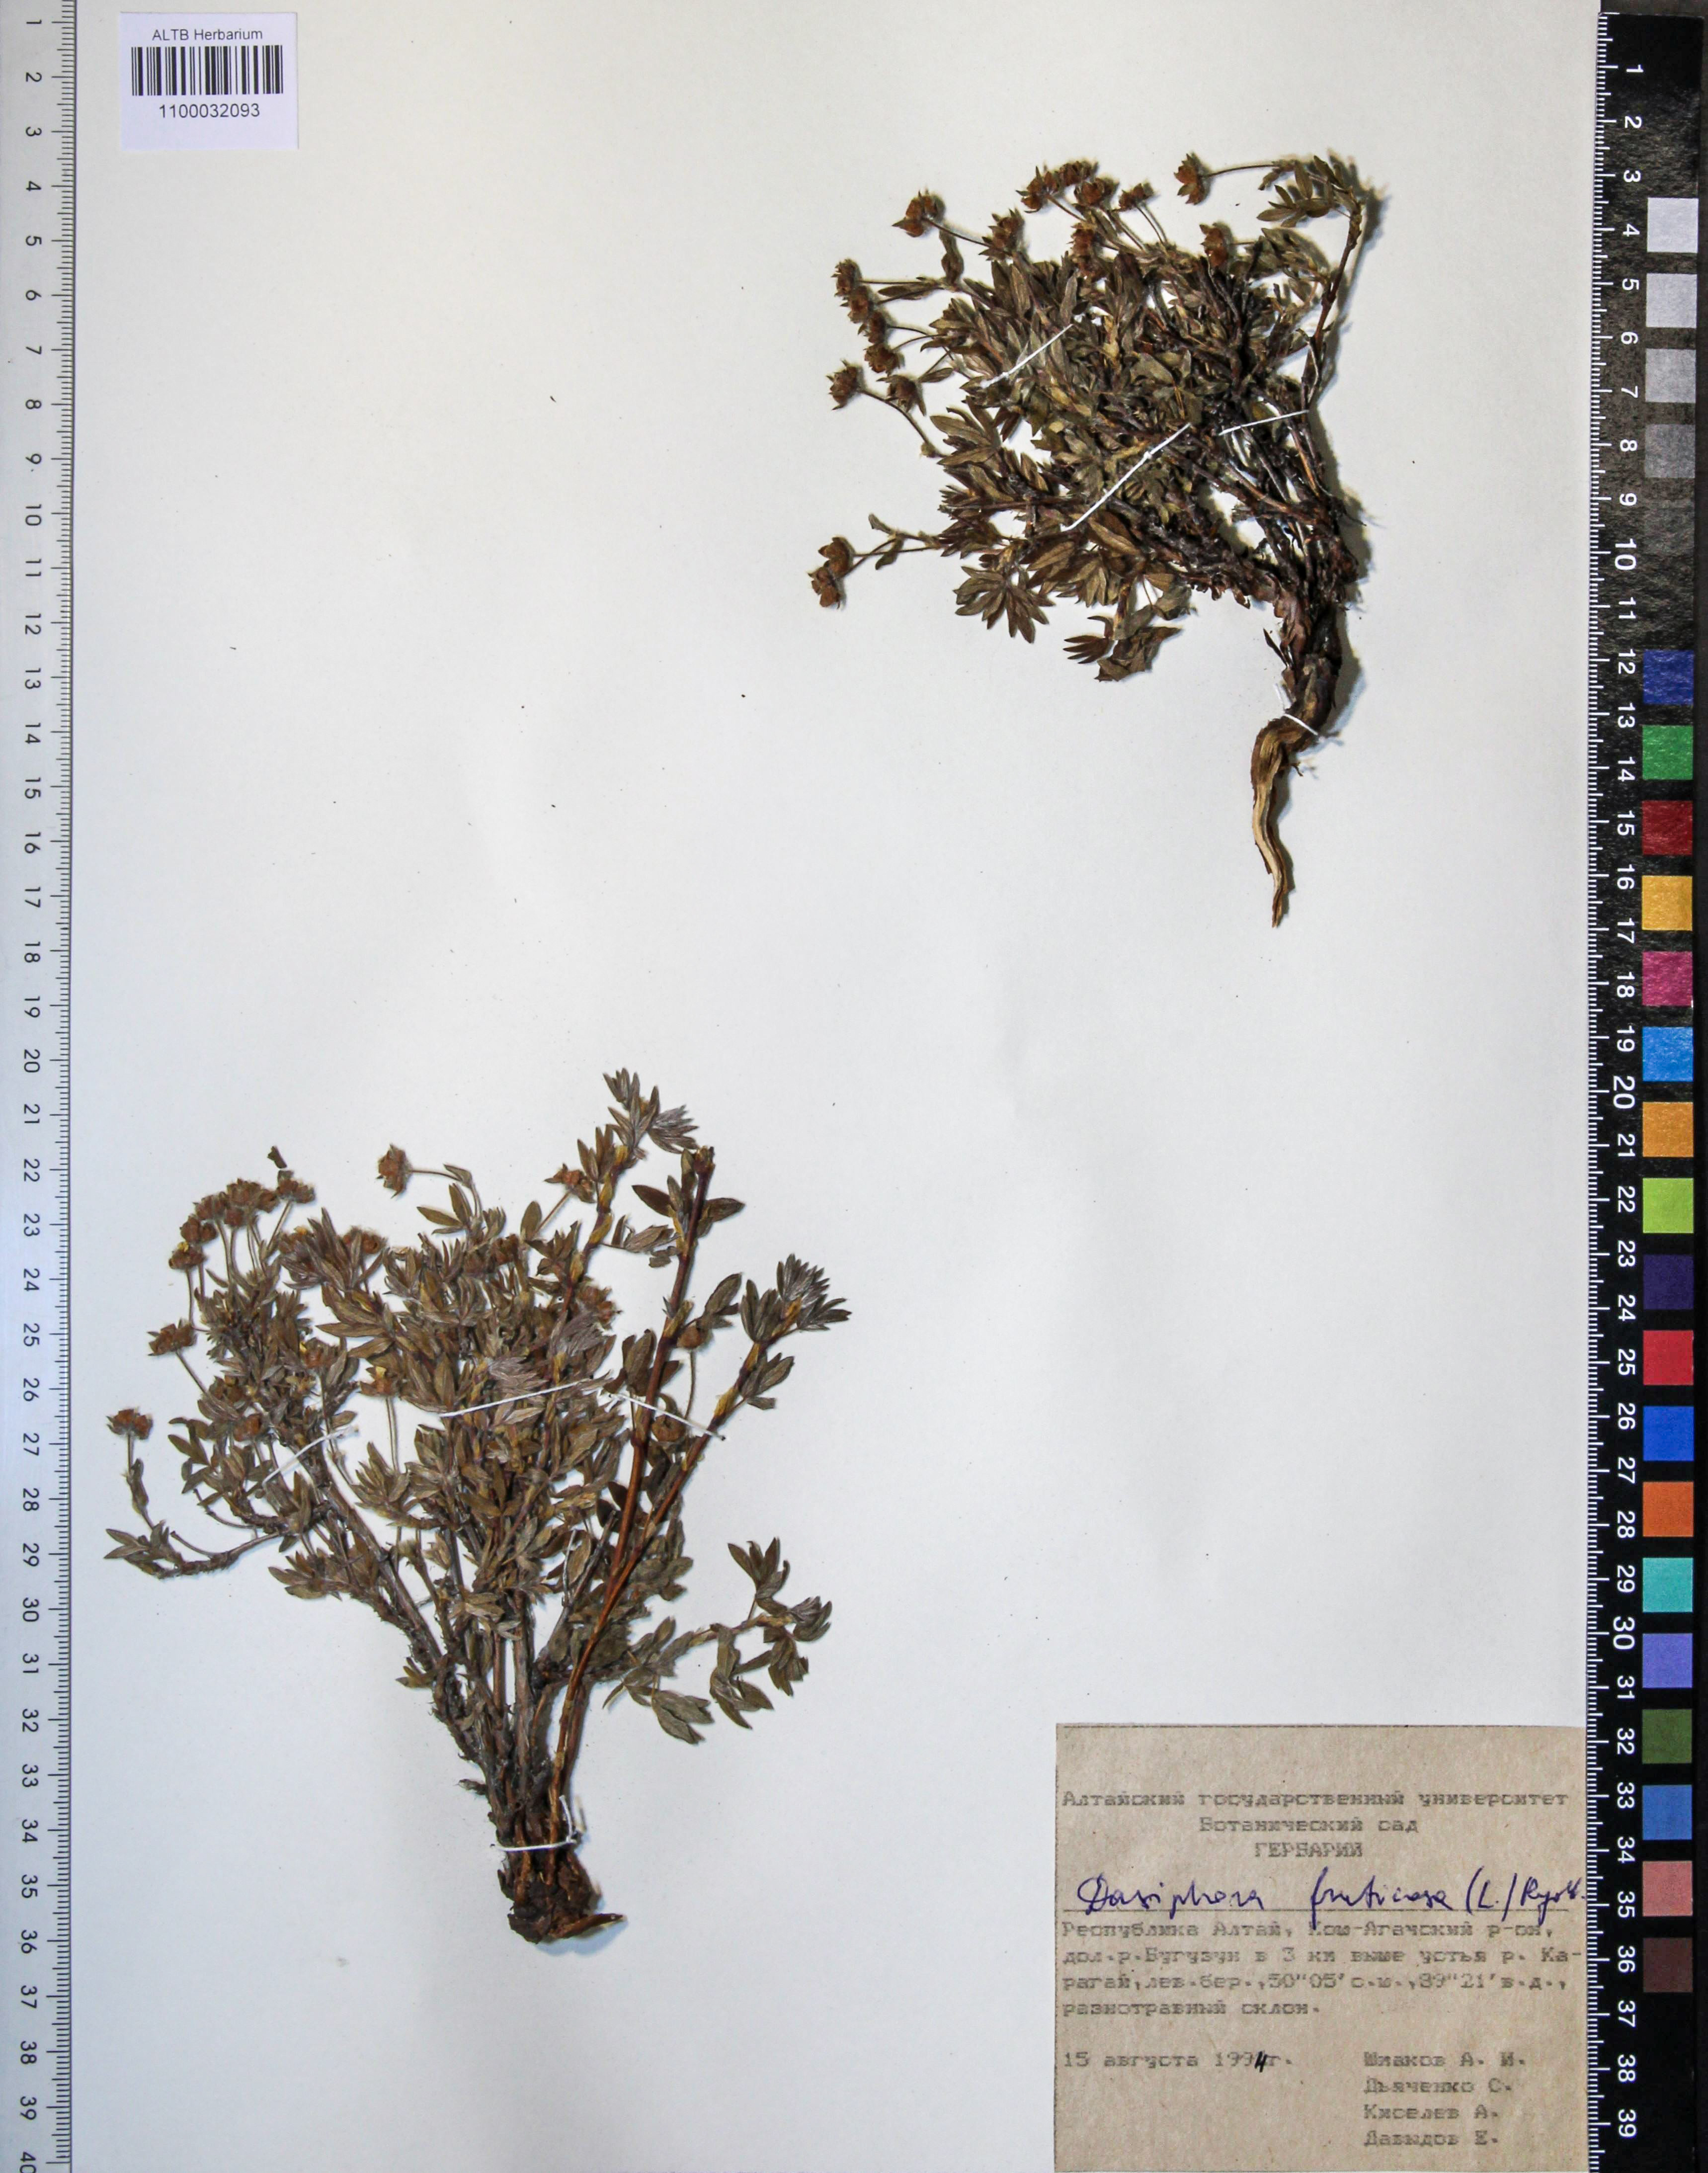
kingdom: Plantae
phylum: Tracheophyta
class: Magnoliopsida
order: Rosales
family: Rosaceae
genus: Dasiphora
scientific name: Dasiphora fruticosa
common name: Shrubby cinquefoil
